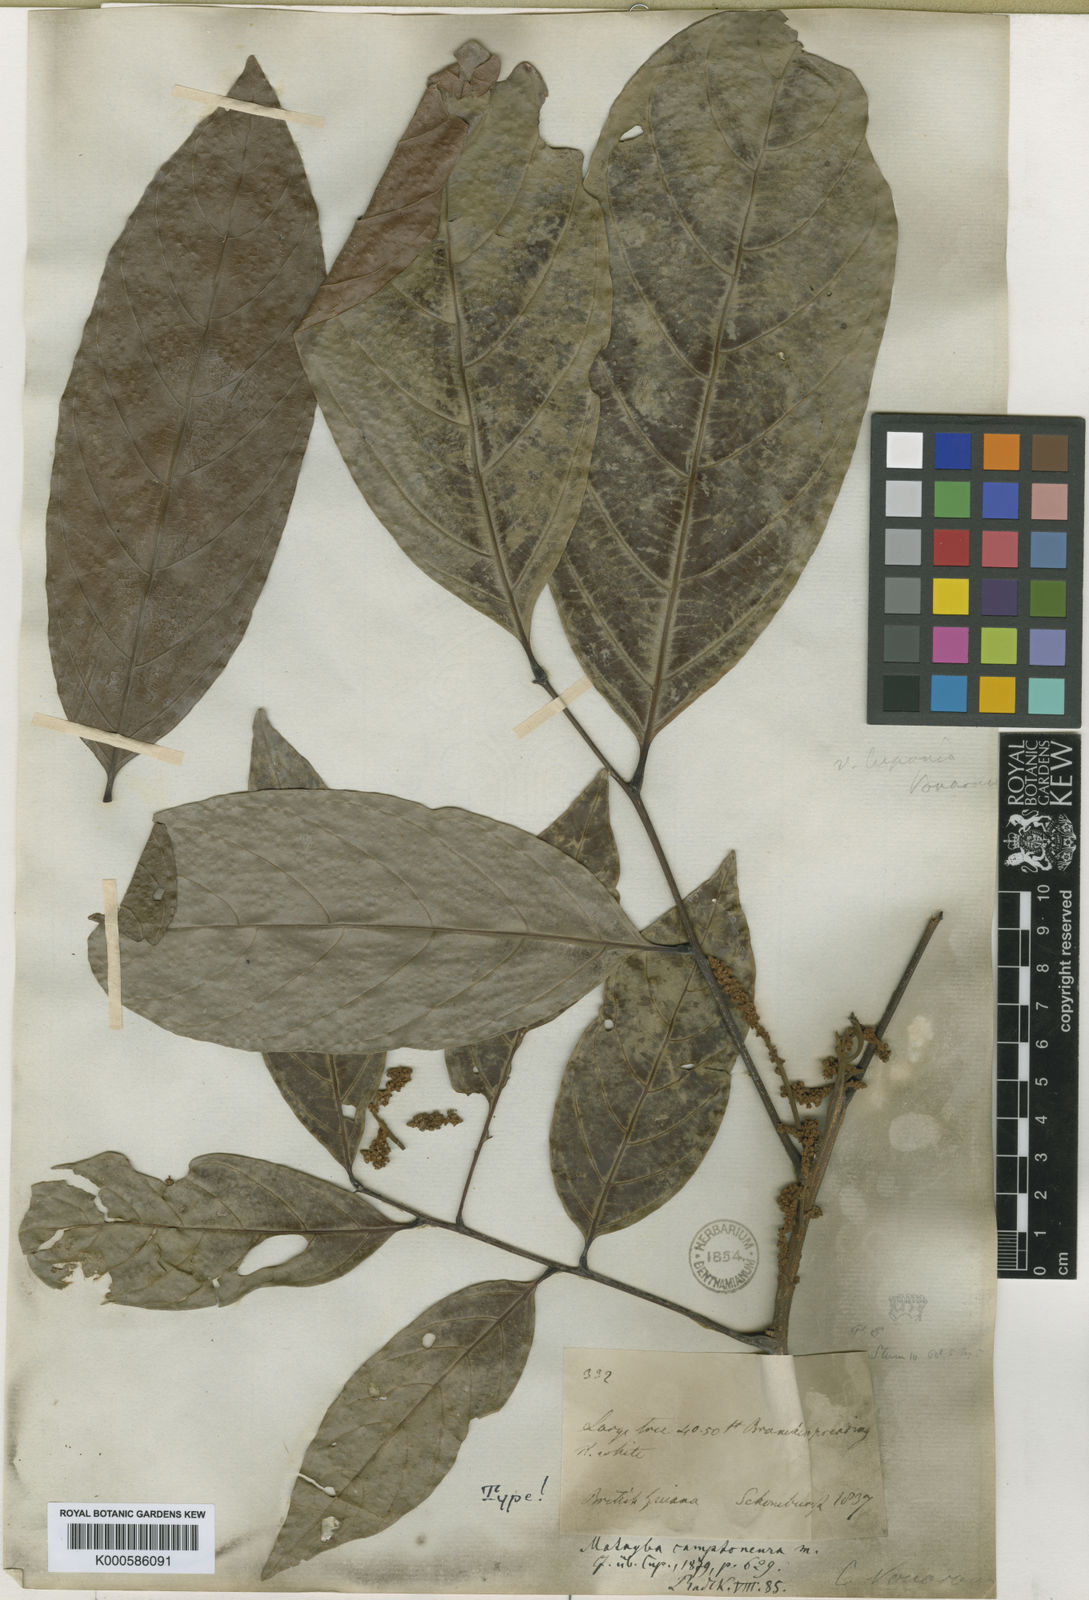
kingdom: Plantae
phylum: Tracheophyta
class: Magnoliopsida
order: Sapindales
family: Sapindaceae
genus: Matayba
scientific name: Matayba camptoneura
